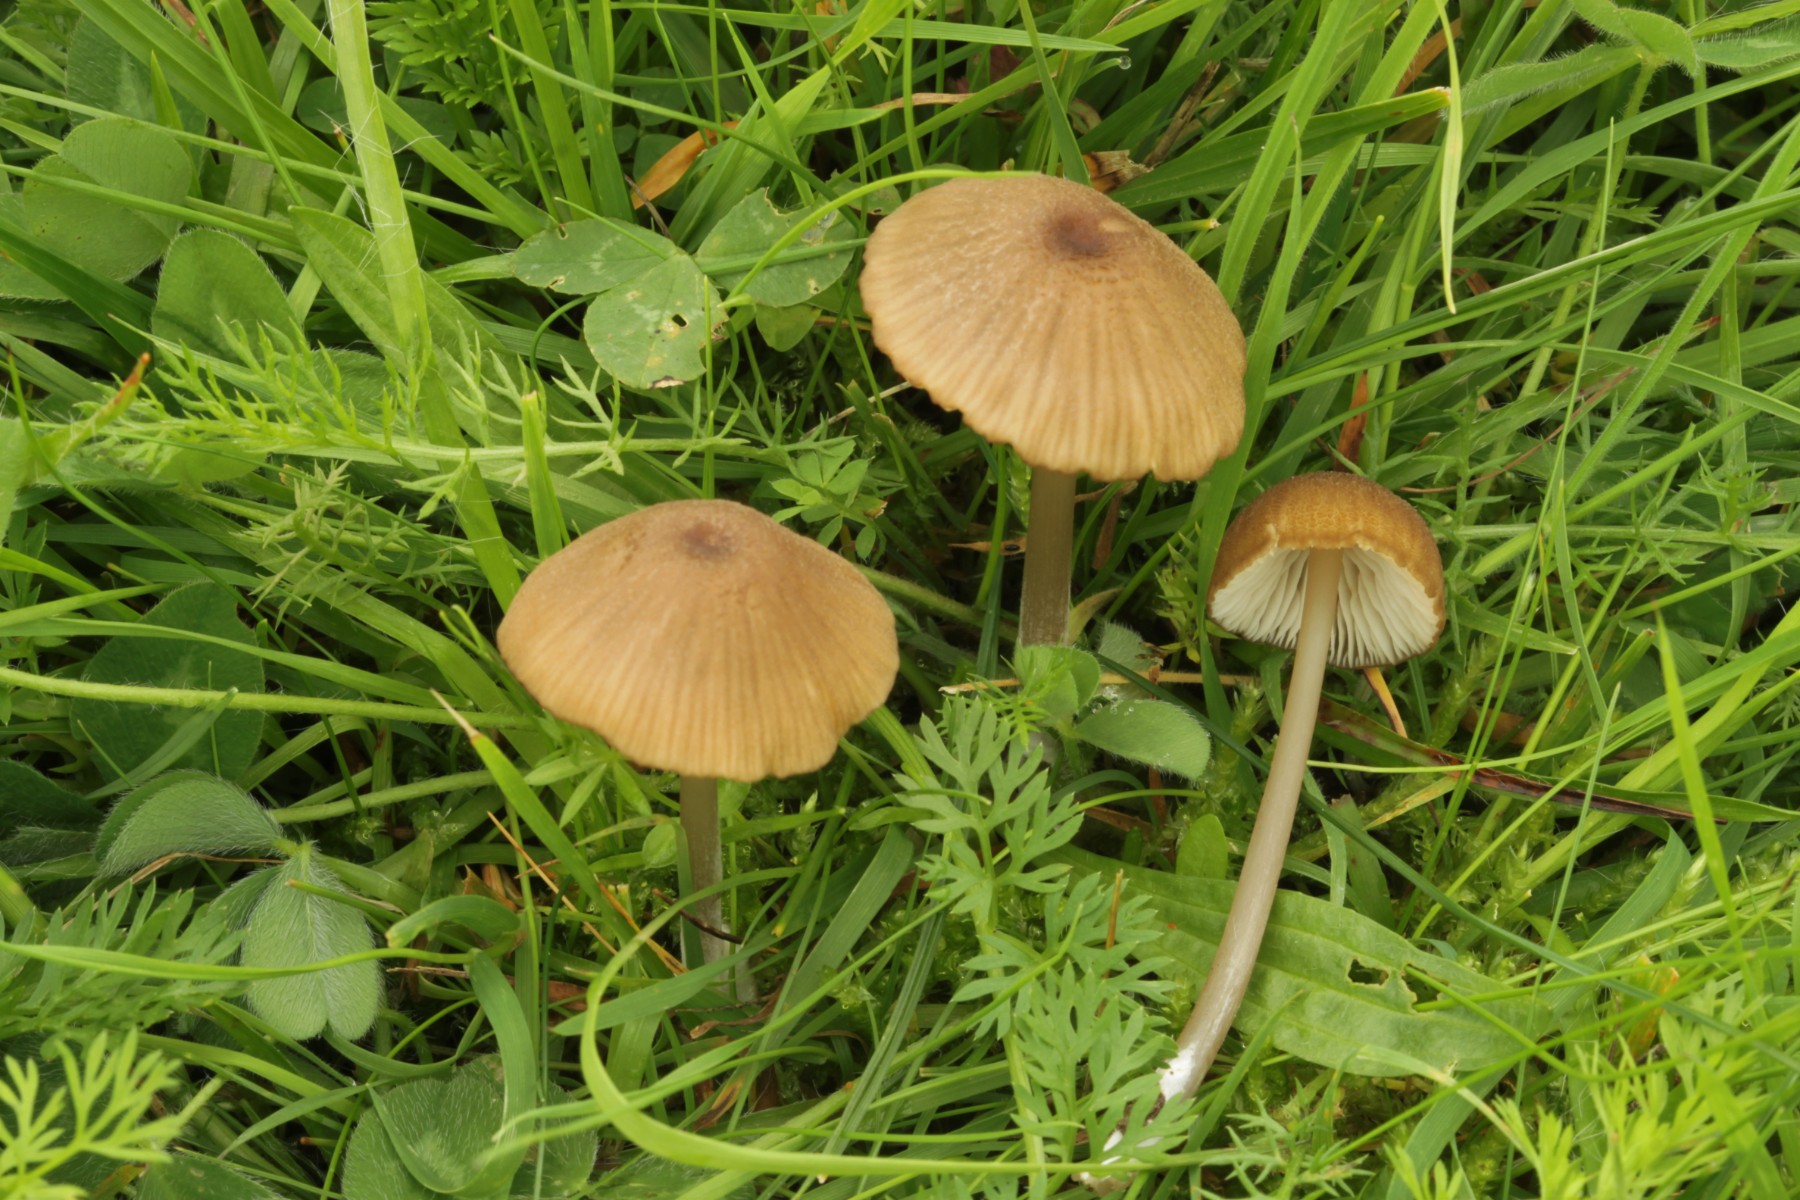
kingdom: Fungi
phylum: Basidiomycota
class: Agaricomycetes
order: Agaricales
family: Entolomataceae
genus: Entoloma
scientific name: Entoloma
